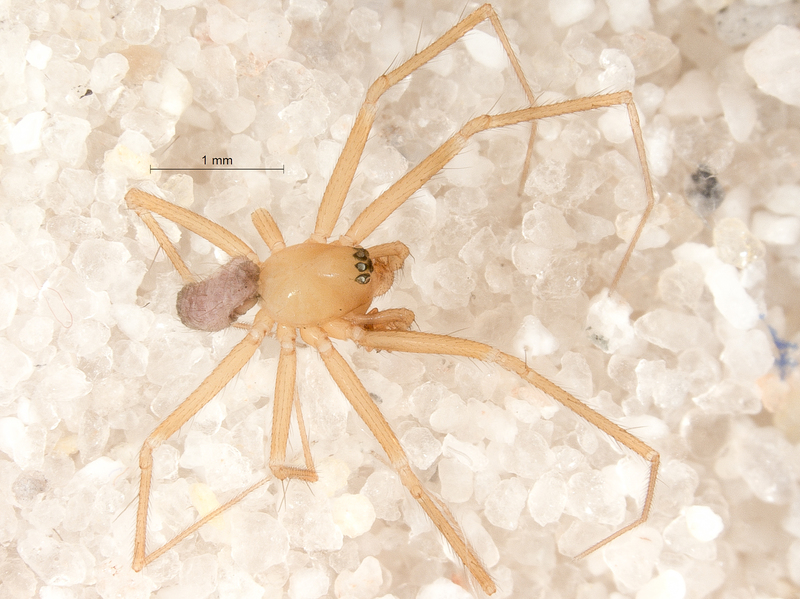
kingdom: Animalia
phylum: Arthropoda
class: Arachnida
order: Araneae
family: Linyphiidae
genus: Palliduphantes
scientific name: Palliduphantes pallidus
